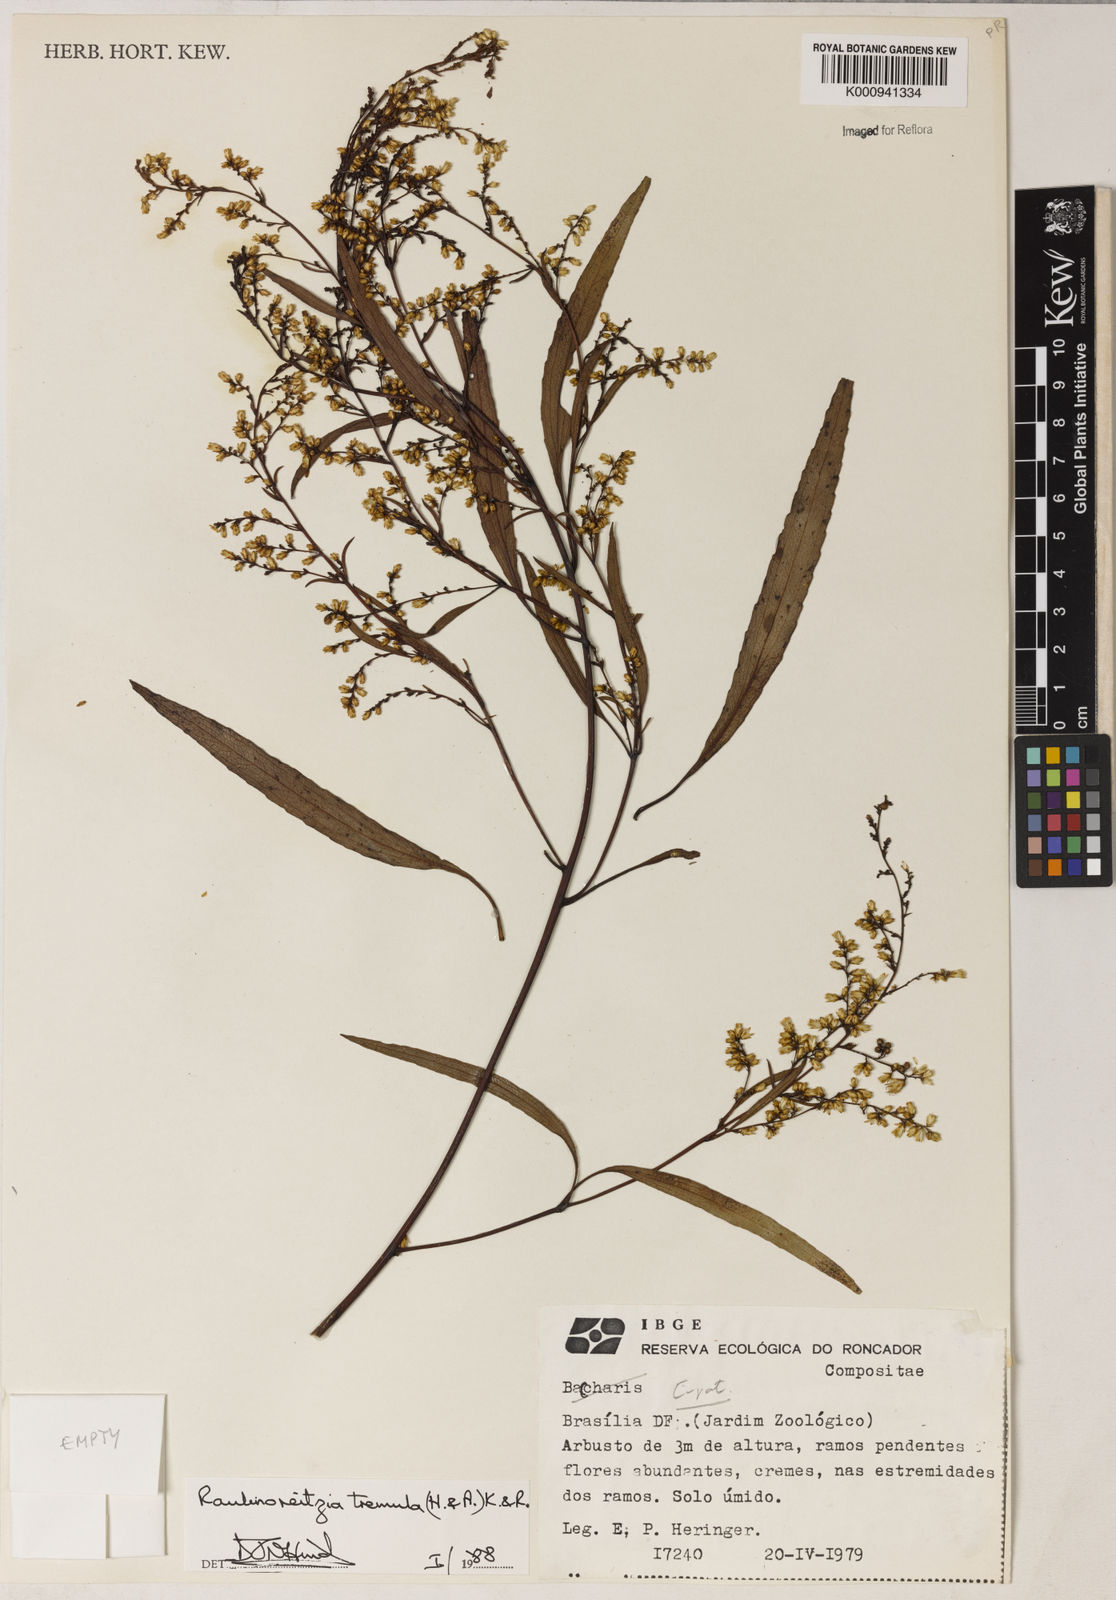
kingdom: Plantae
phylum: Tracheophyta
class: Magnoliopsida
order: Asterales
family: Asteraceae
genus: Raulinoreitzia
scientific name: Raulinoreitzia tremula
